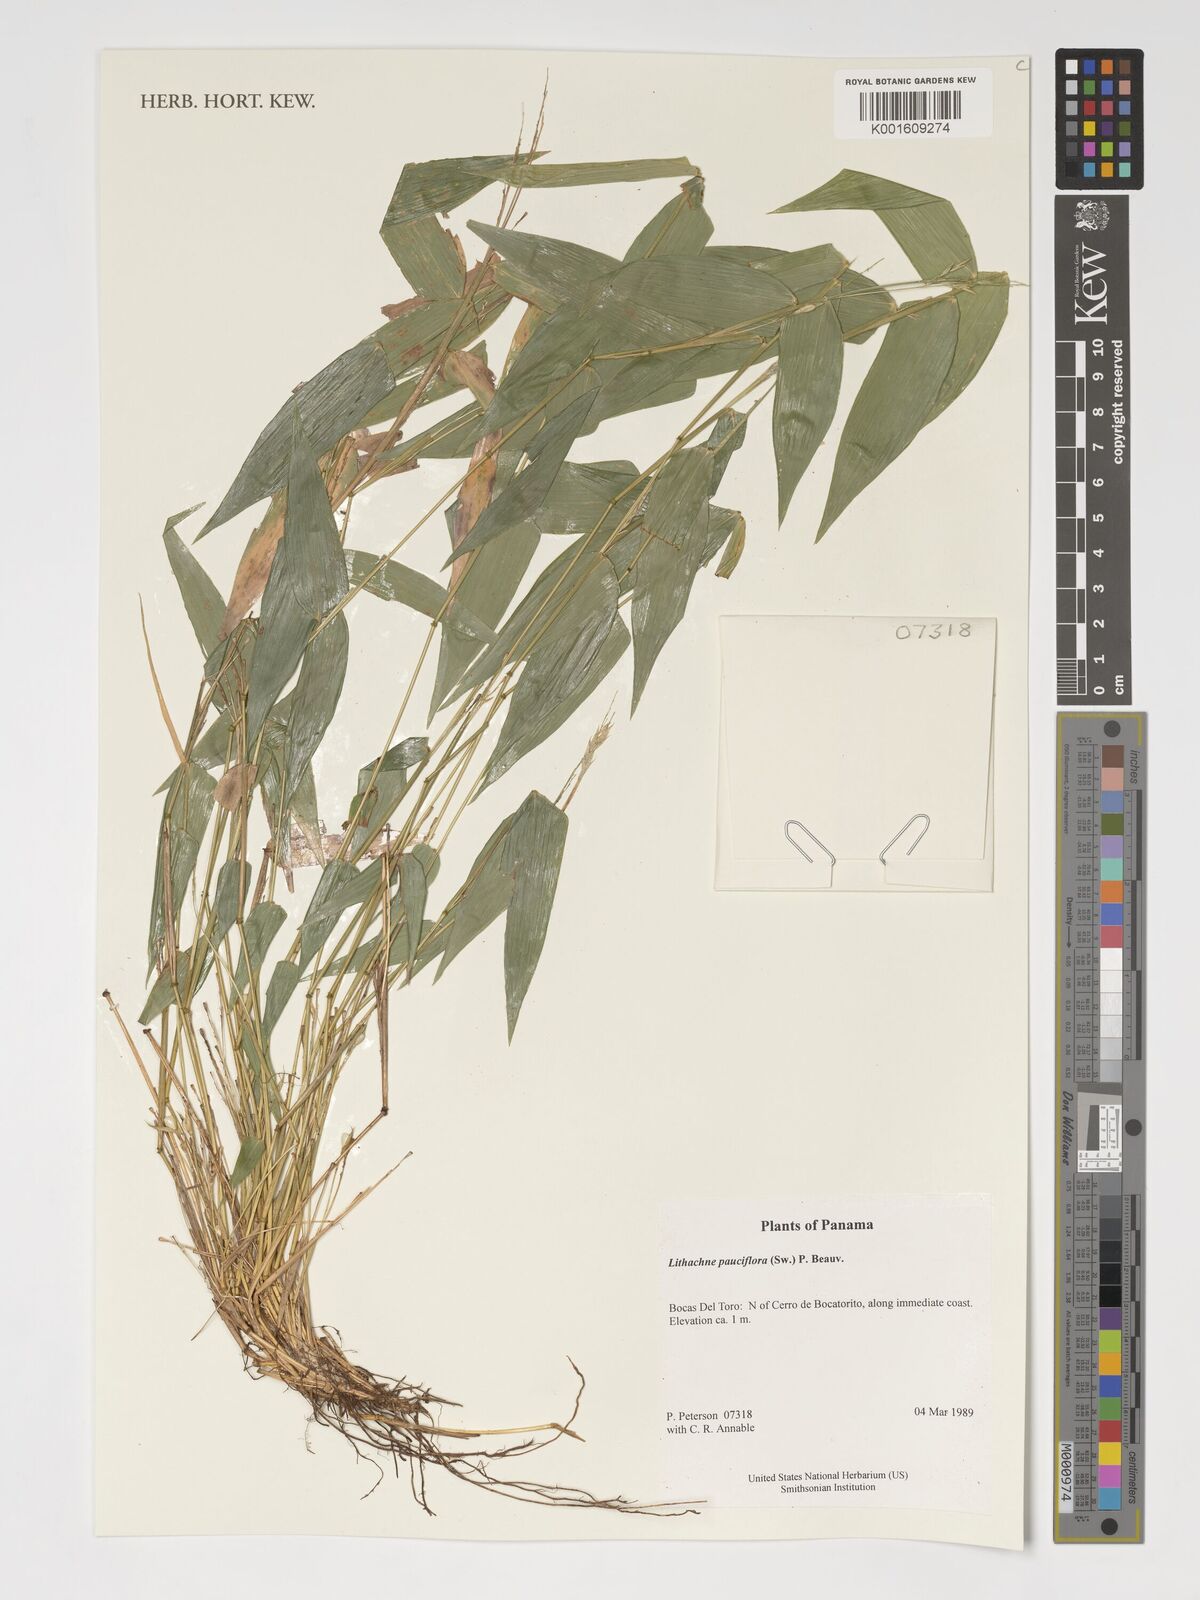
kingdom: Plantae
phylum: Tracheophyta
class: Liliopsida
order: Poales
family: Poaceae
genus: Lithachne
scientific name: Lithachne pauciflora
